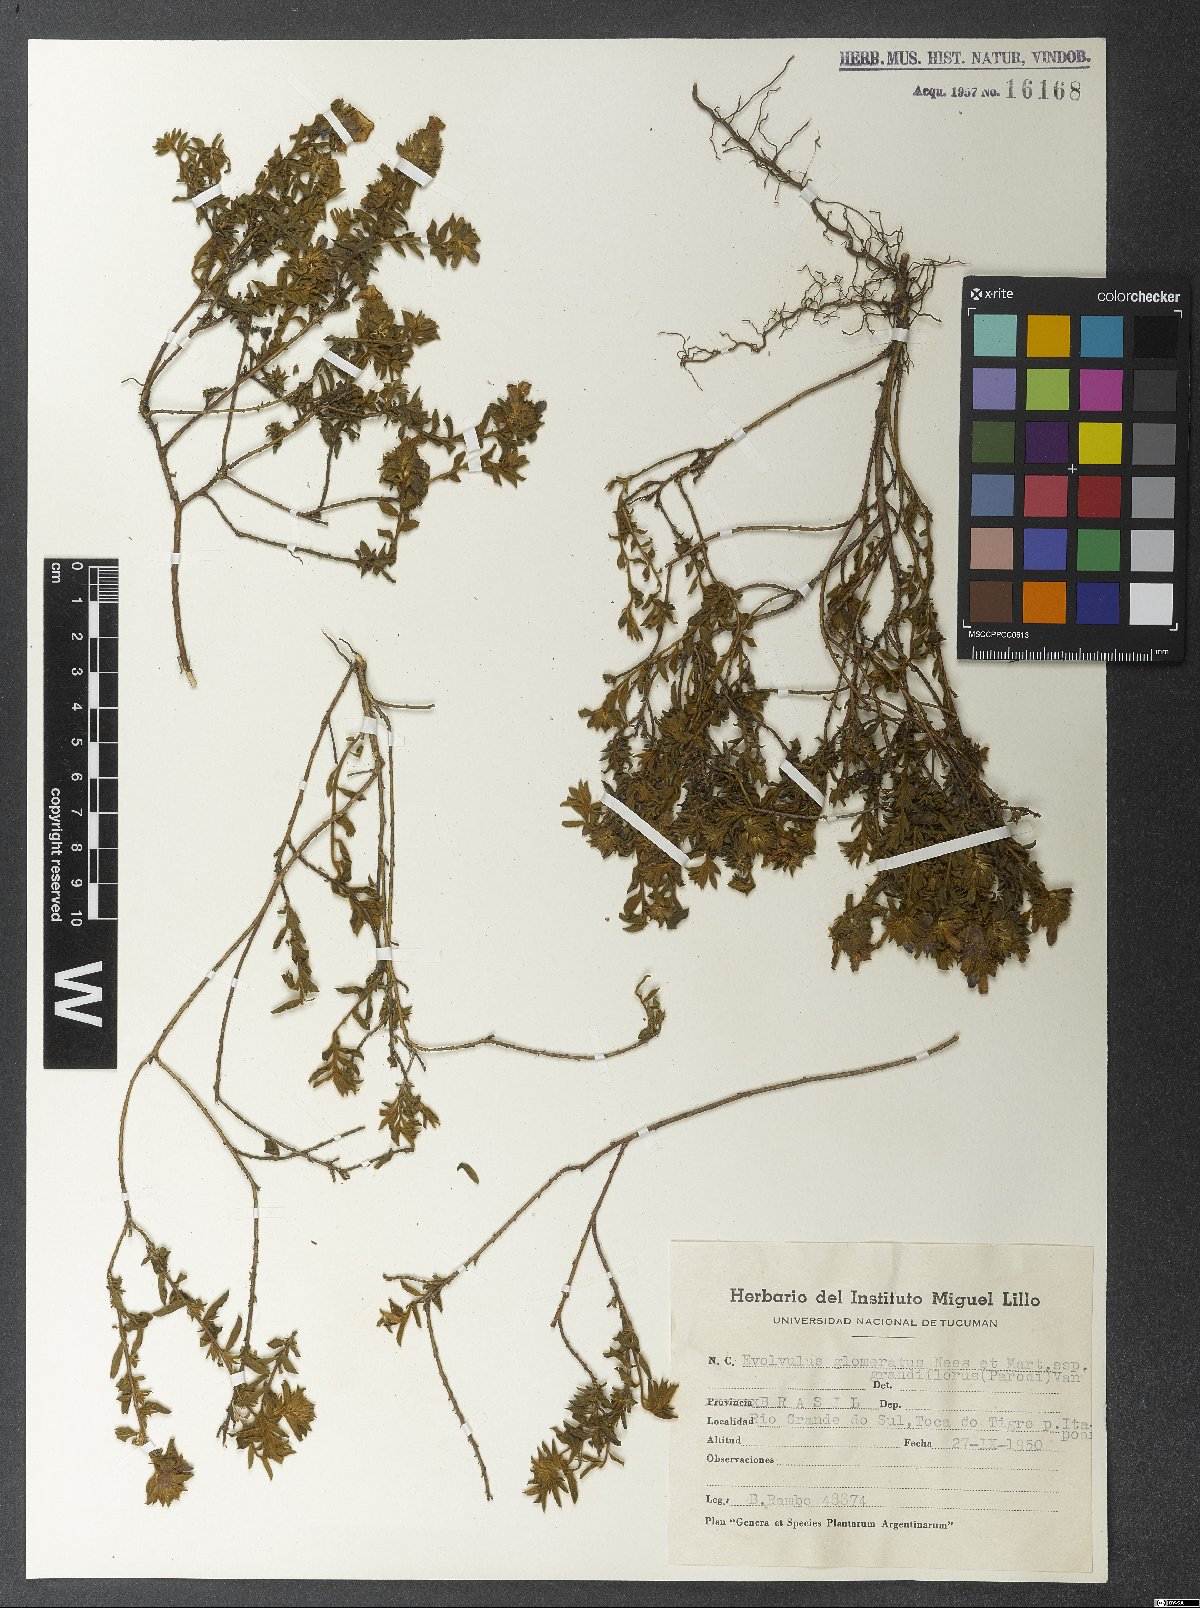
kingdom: Plantae
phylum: Tracheophyta
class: Magnoliopsida
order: Solanales
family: Convolvulaceae
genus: Evolvulus
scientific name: Evolvulus glomeratus
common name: Brazilian dwarf morning-glory
